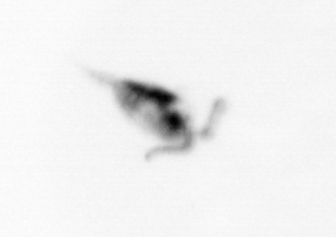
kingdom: Animalia
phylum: Arthropoda
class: Copepoda
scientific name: Copepoda
